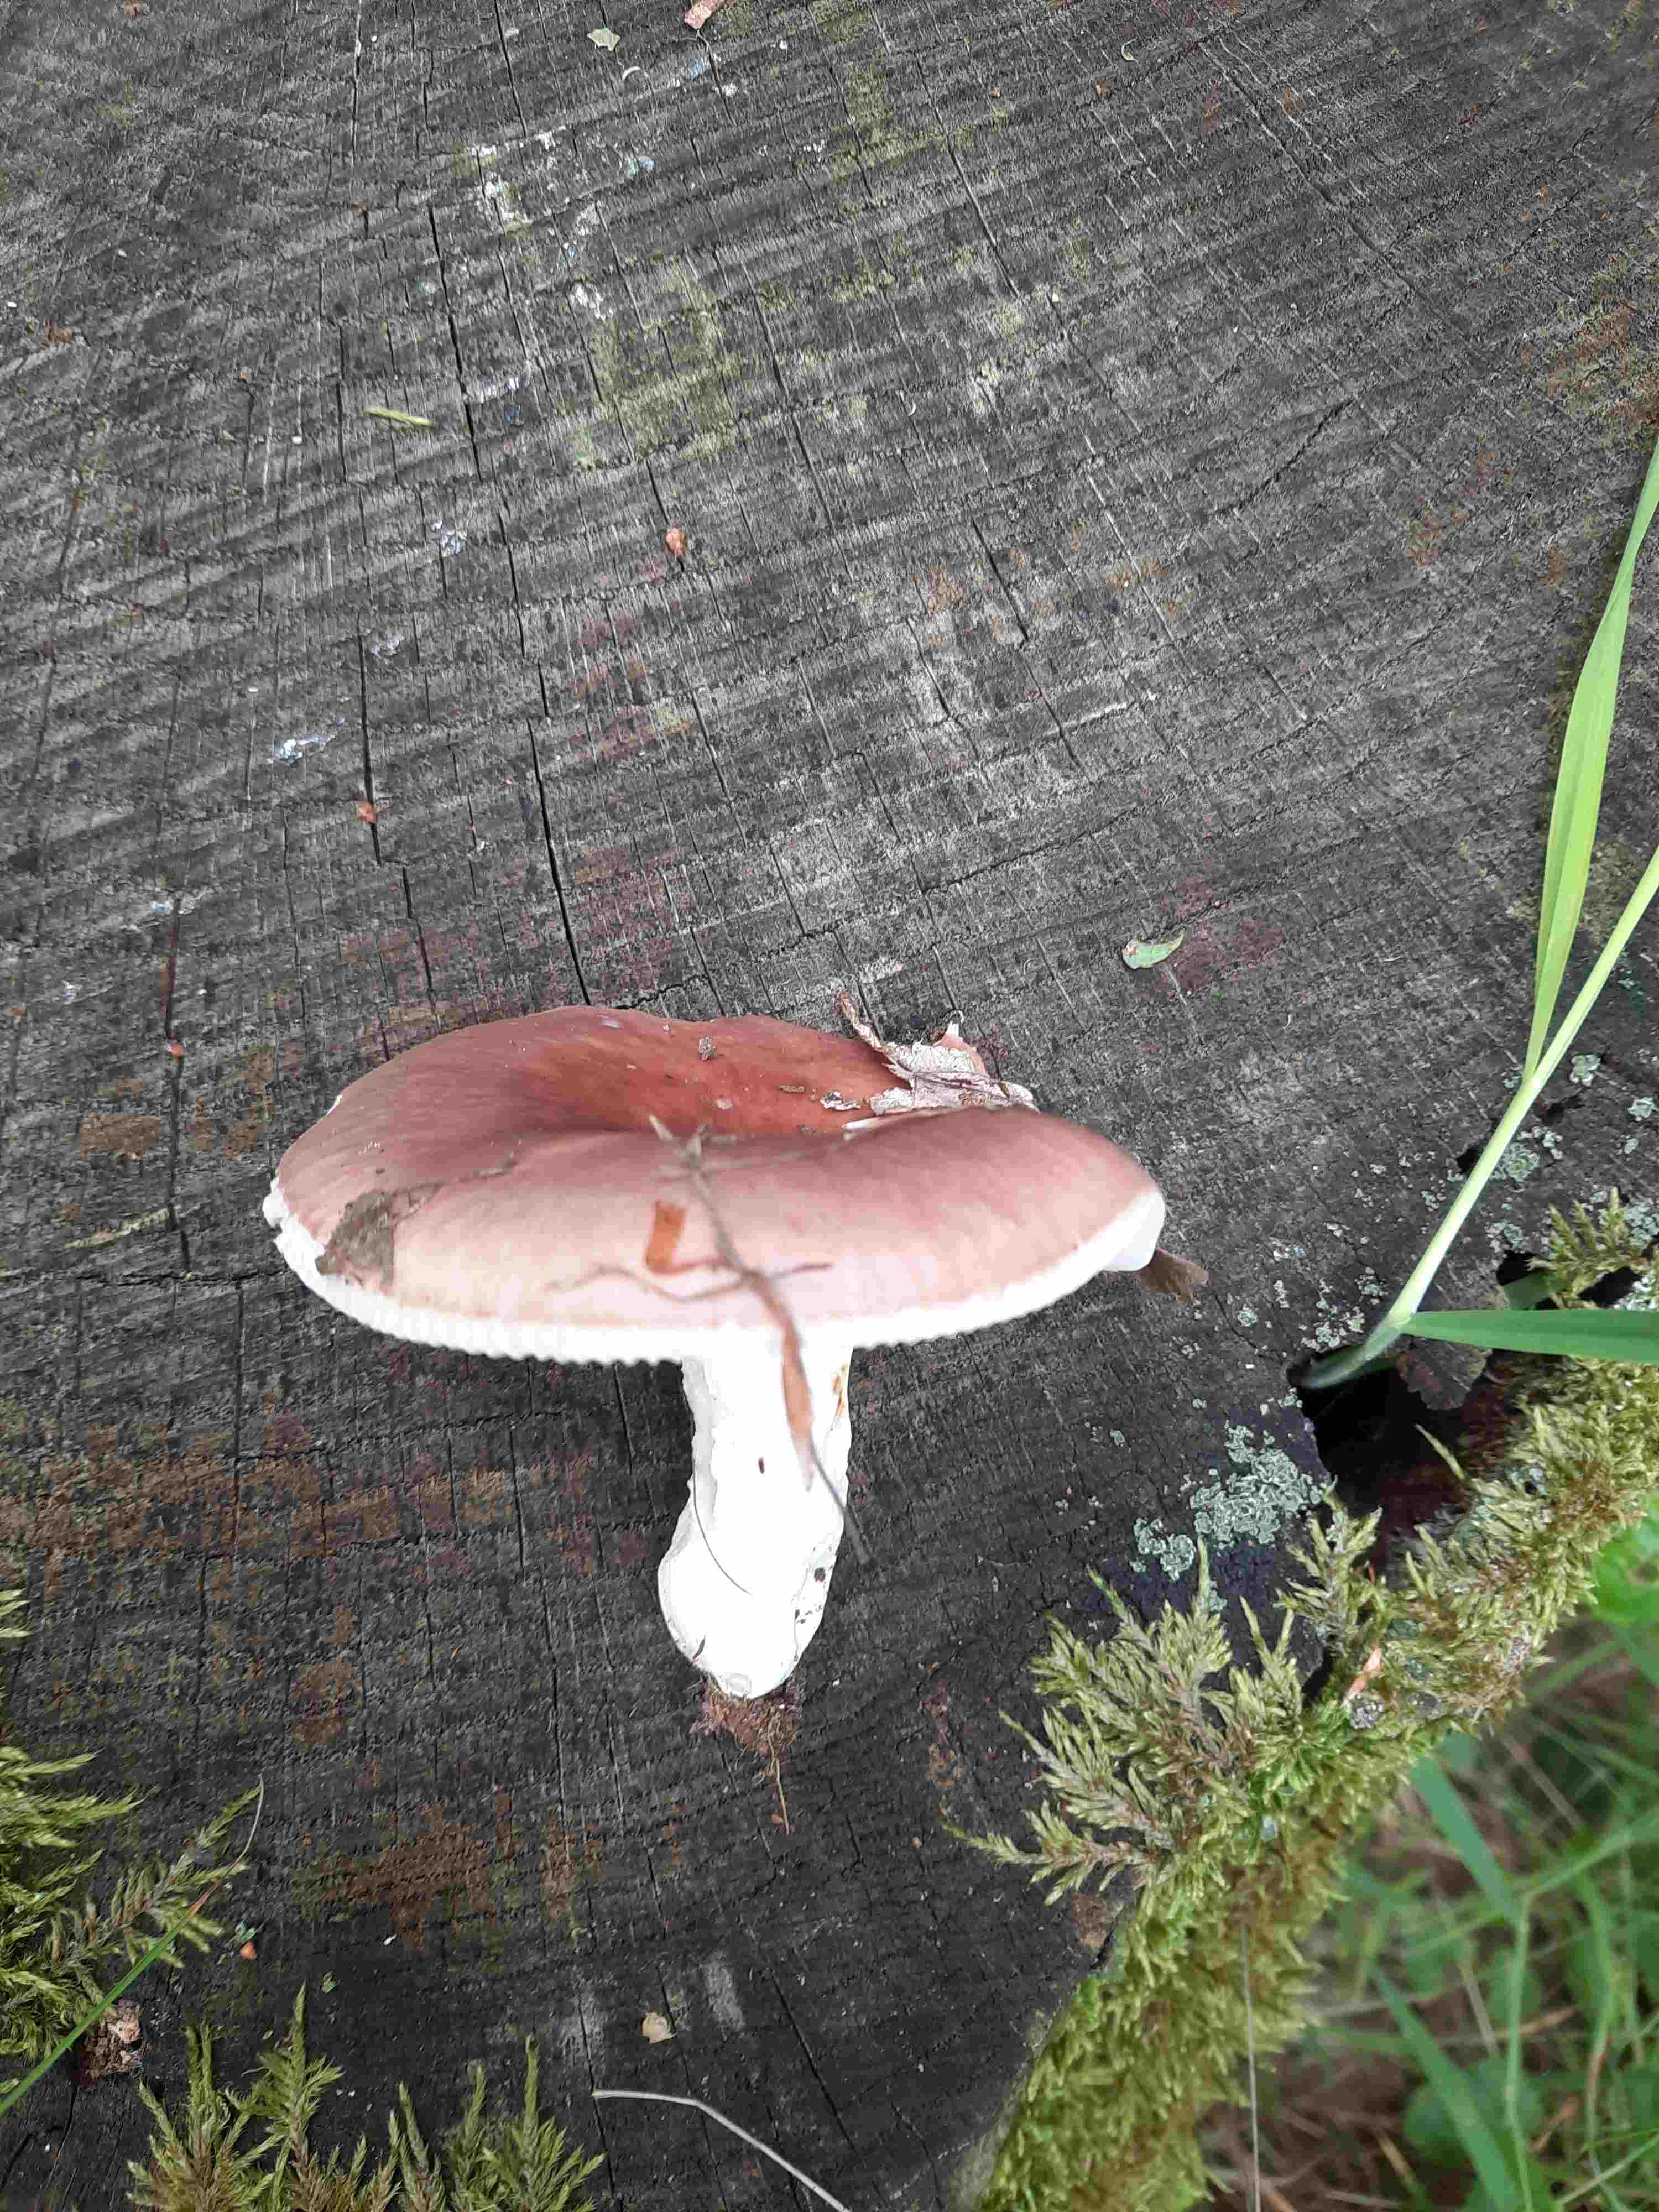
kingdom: Fungi
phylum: Basidiomycota
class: Agaricomycetes
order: Russulales
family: Russulaceae
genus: Russula
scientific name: Russula vesca
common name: spiselig skørhat
